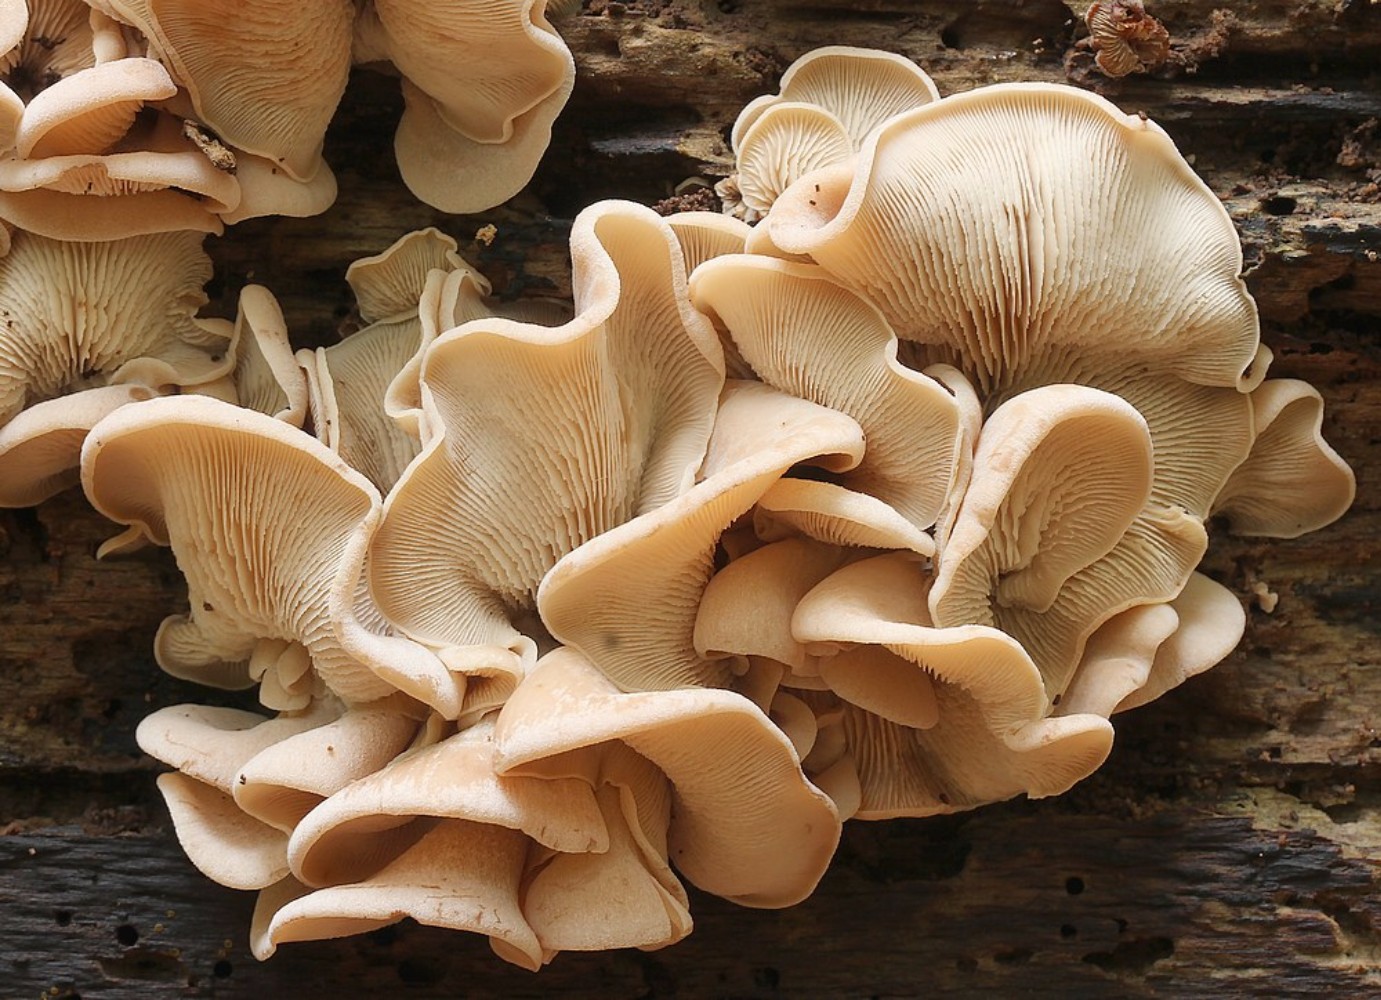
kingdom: Fungi
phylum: Basidiomycota
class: Agaricomycetes
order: Russulales
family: Auriscalpiaceae
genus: Lentinellus
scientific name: Lentinellus ursinus
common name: børstehåret savbladhat
